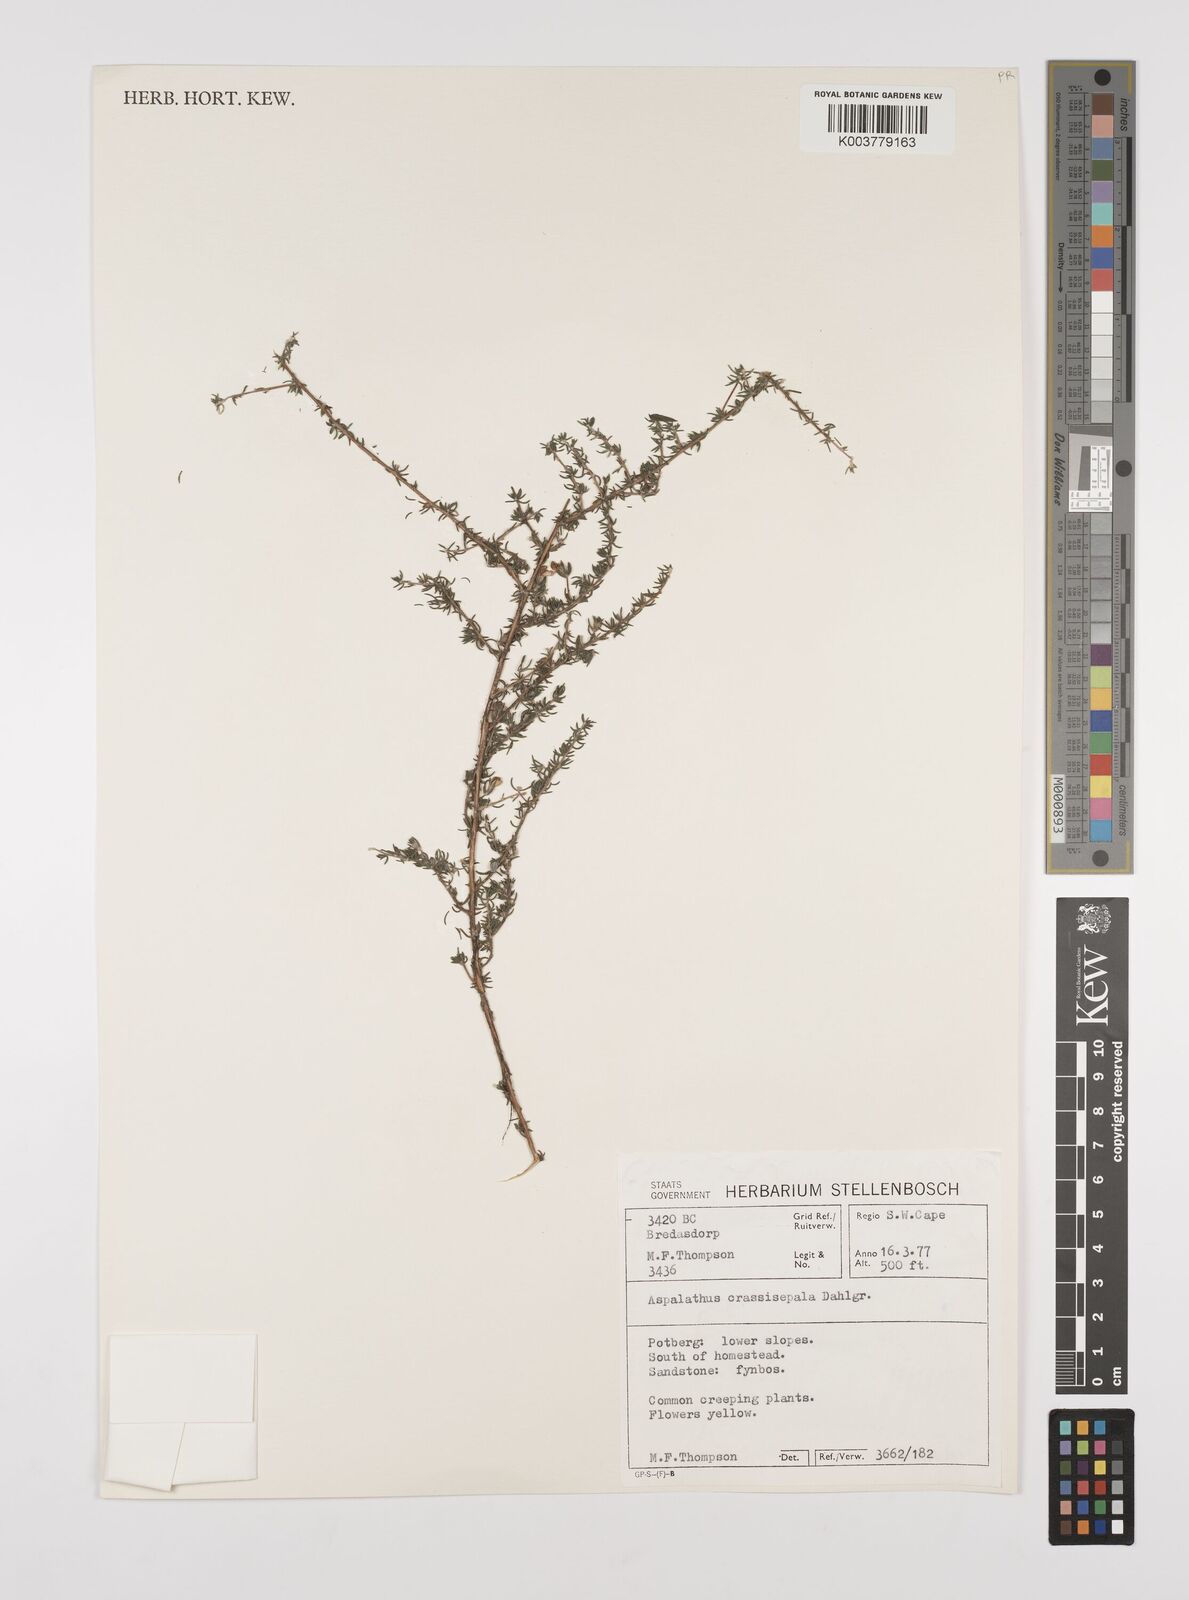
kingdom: Plantae
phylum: Tracheophyta
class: Magnoliopsida
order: Fabales
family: Fabaceae
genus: Aspalathus
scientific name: Aspalathus crassisepala
